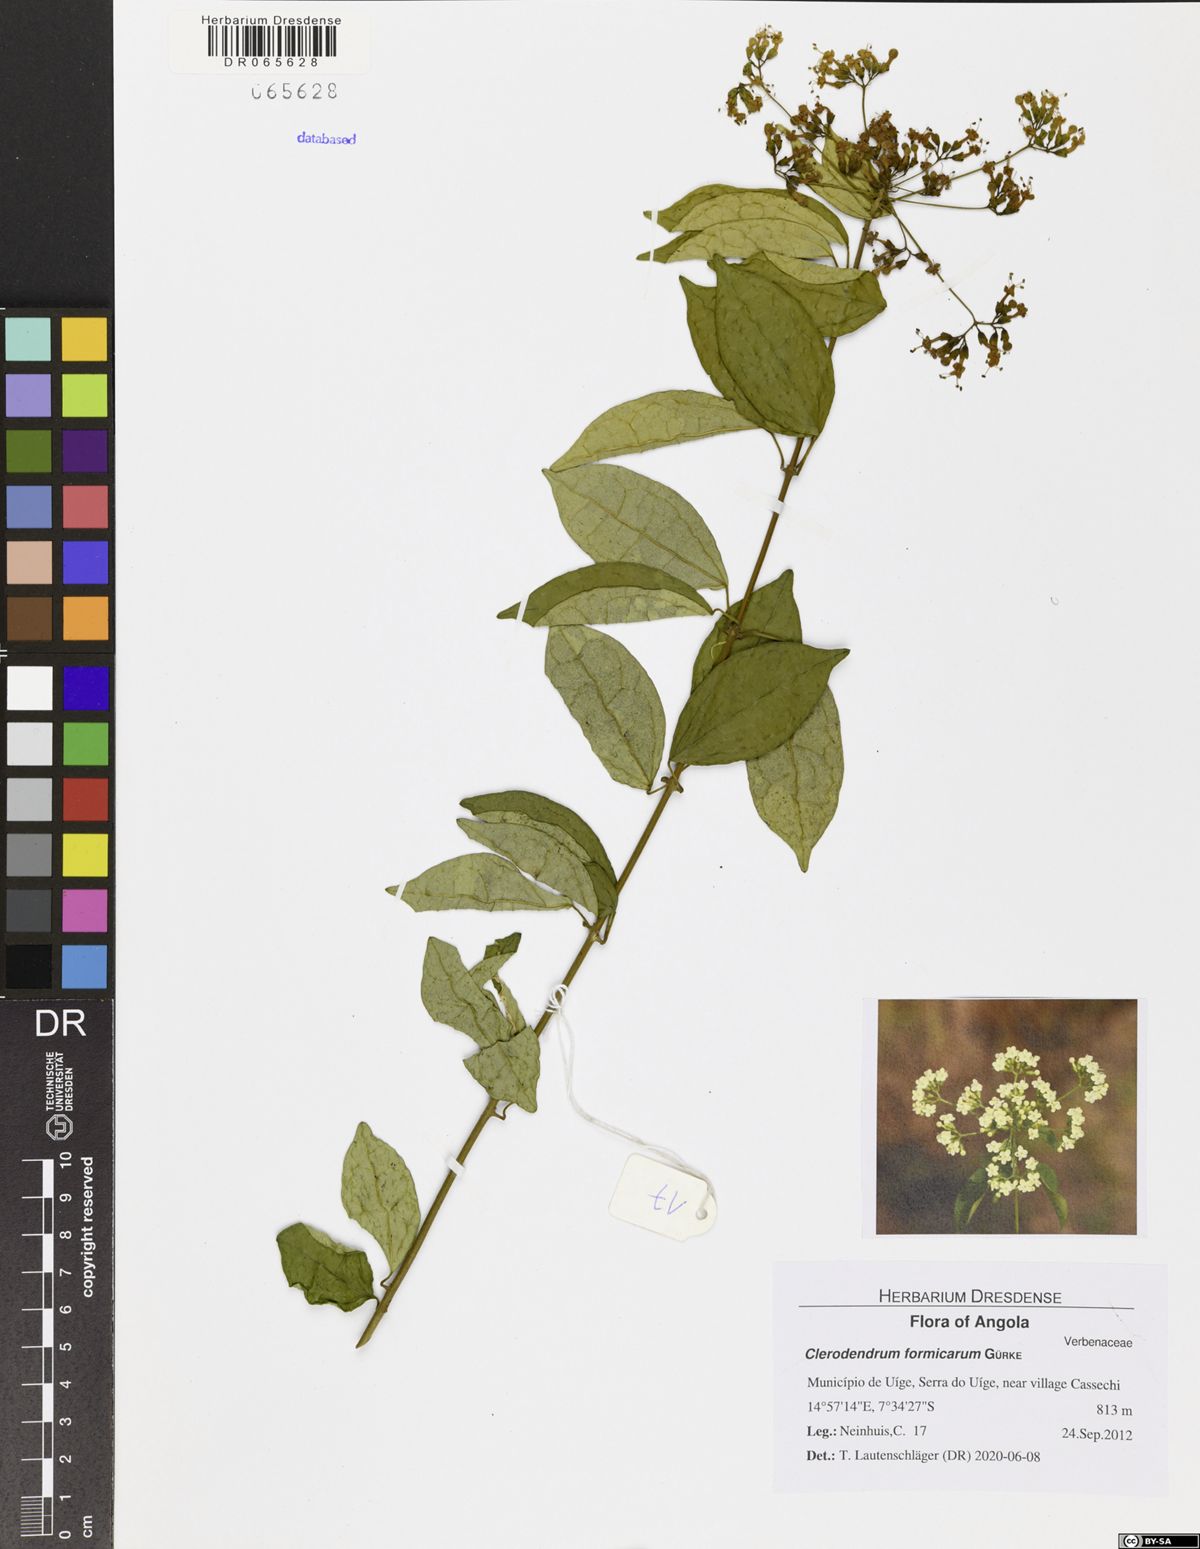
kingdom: Plantae
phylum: Tracheophyta
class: Magnoliopsida
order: Lamiales
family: Lamiaceae
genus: Clerodendrum
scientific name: Clerodendrum formicarum
